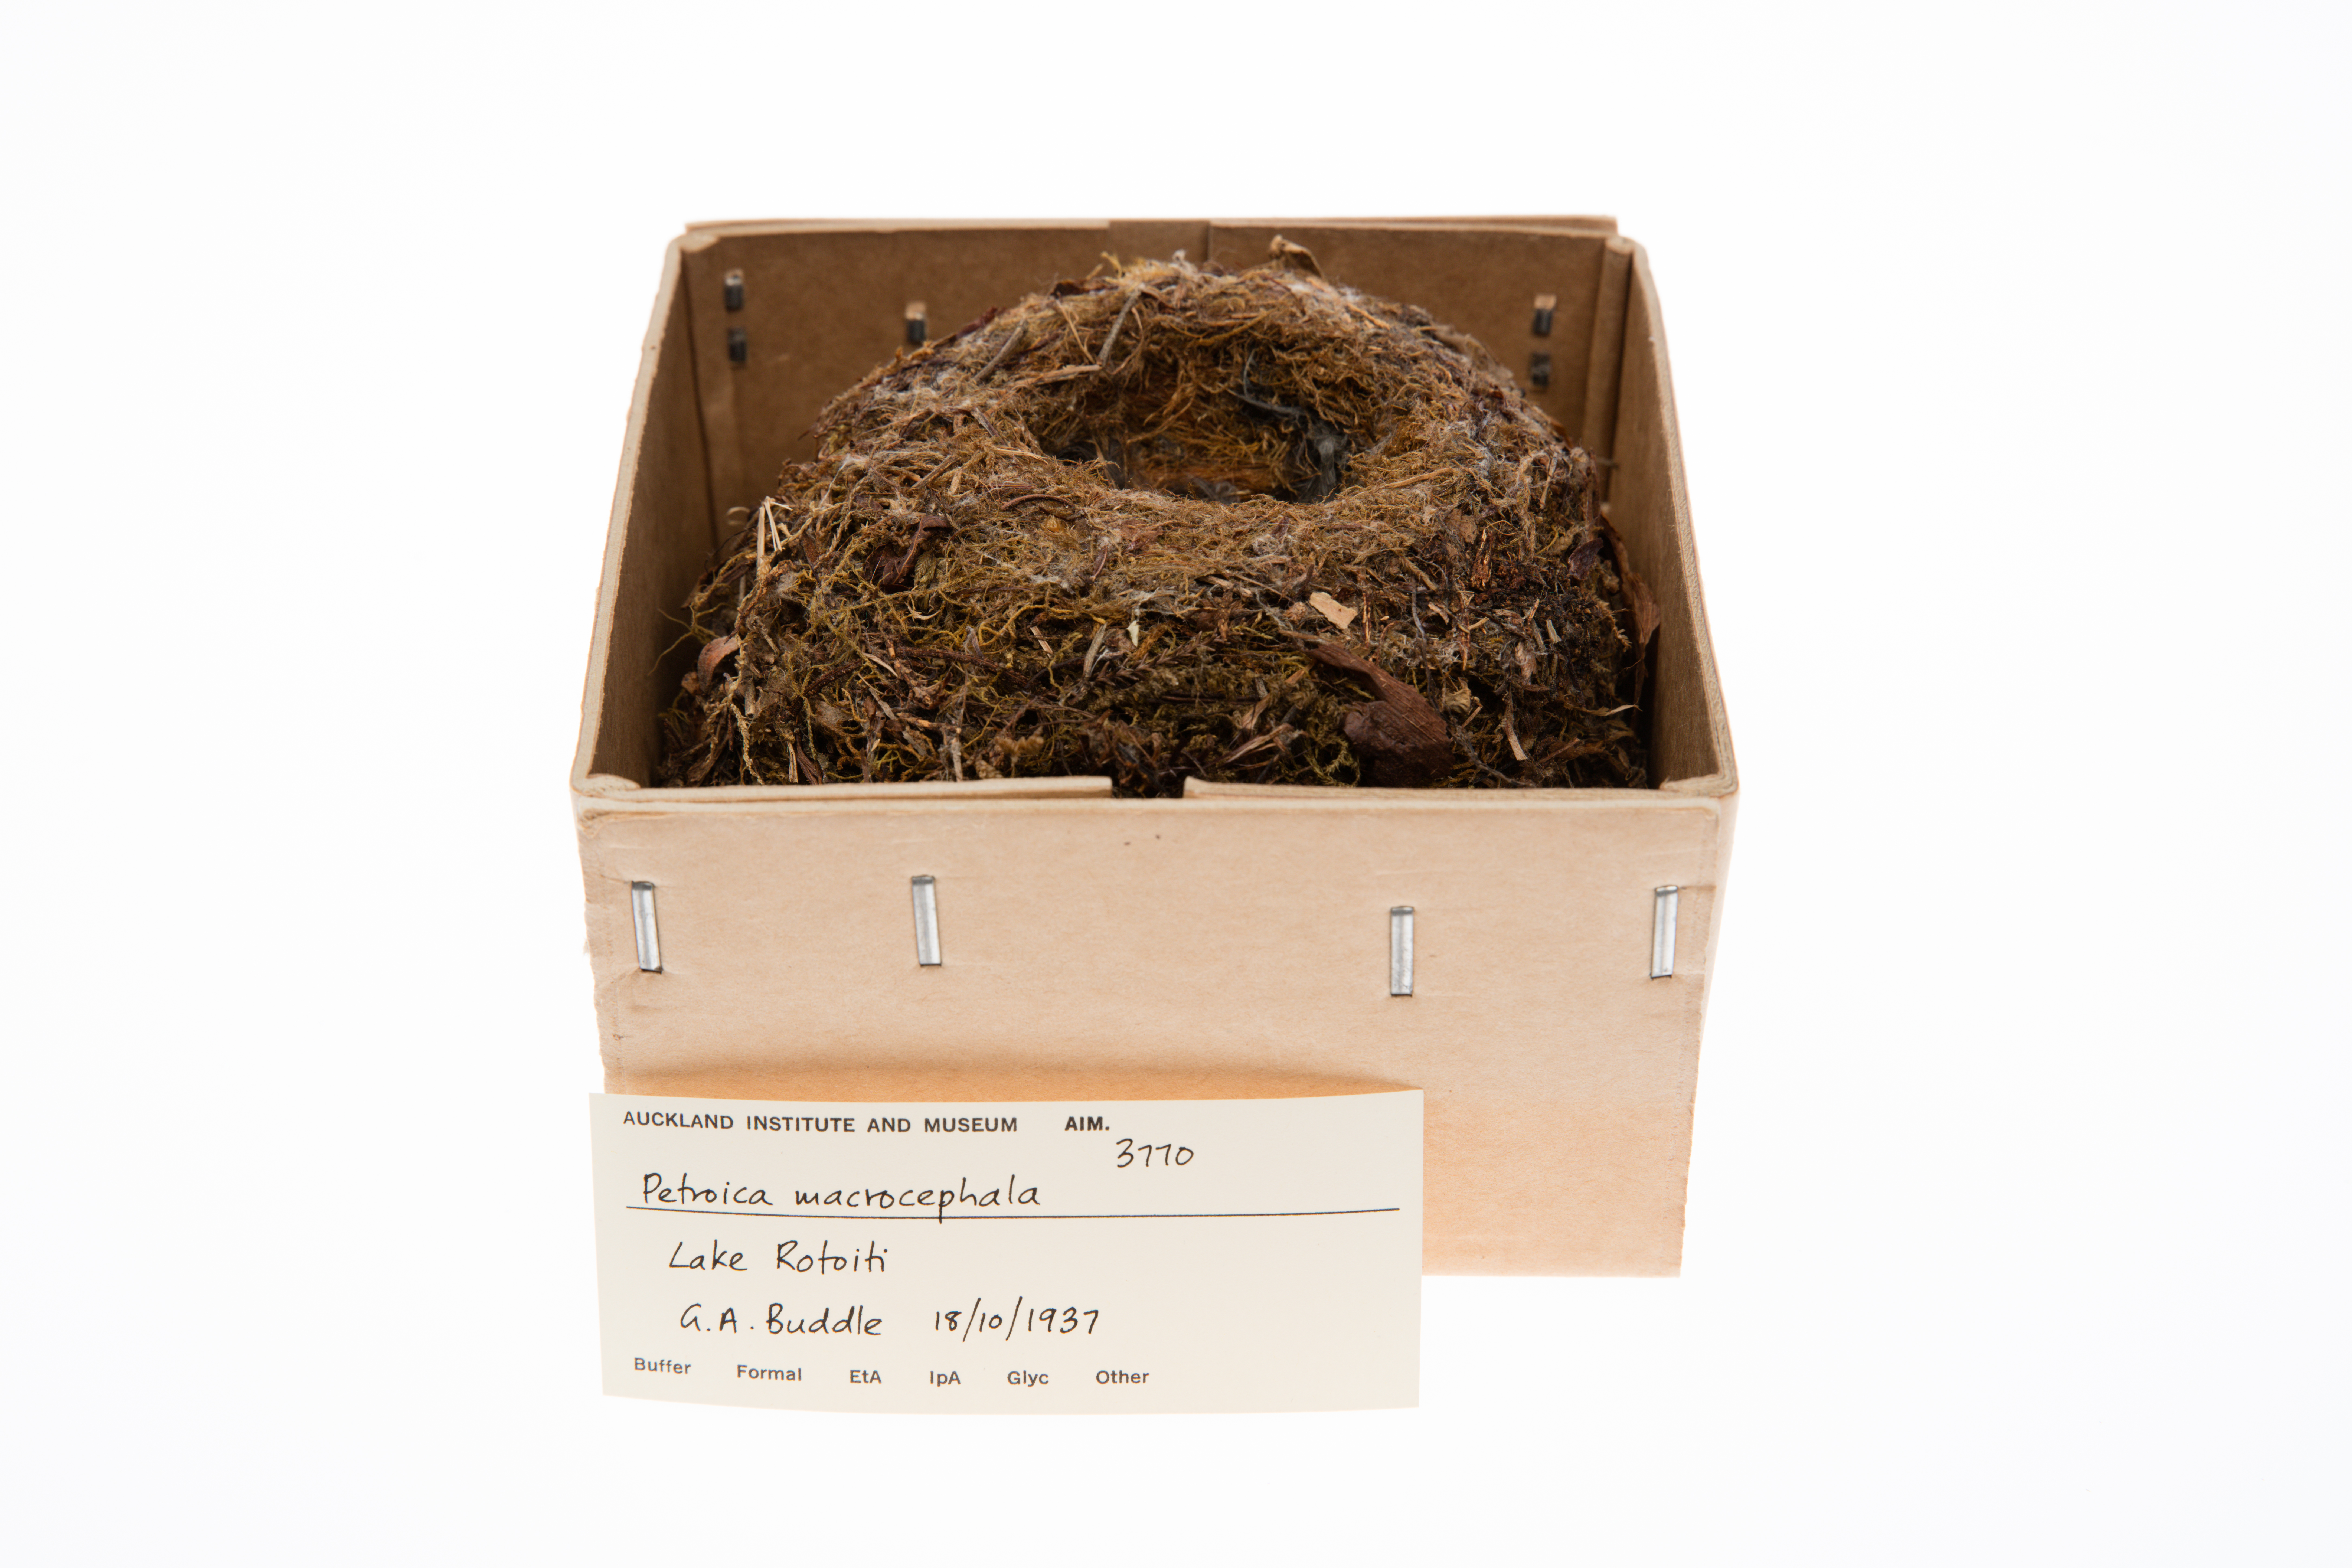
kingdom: Animalia
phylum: Chordata
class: Aves
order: Passeriformes
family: Petroicidae
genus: Petroica
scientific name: Petroica macrocephala
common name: Tomtit
